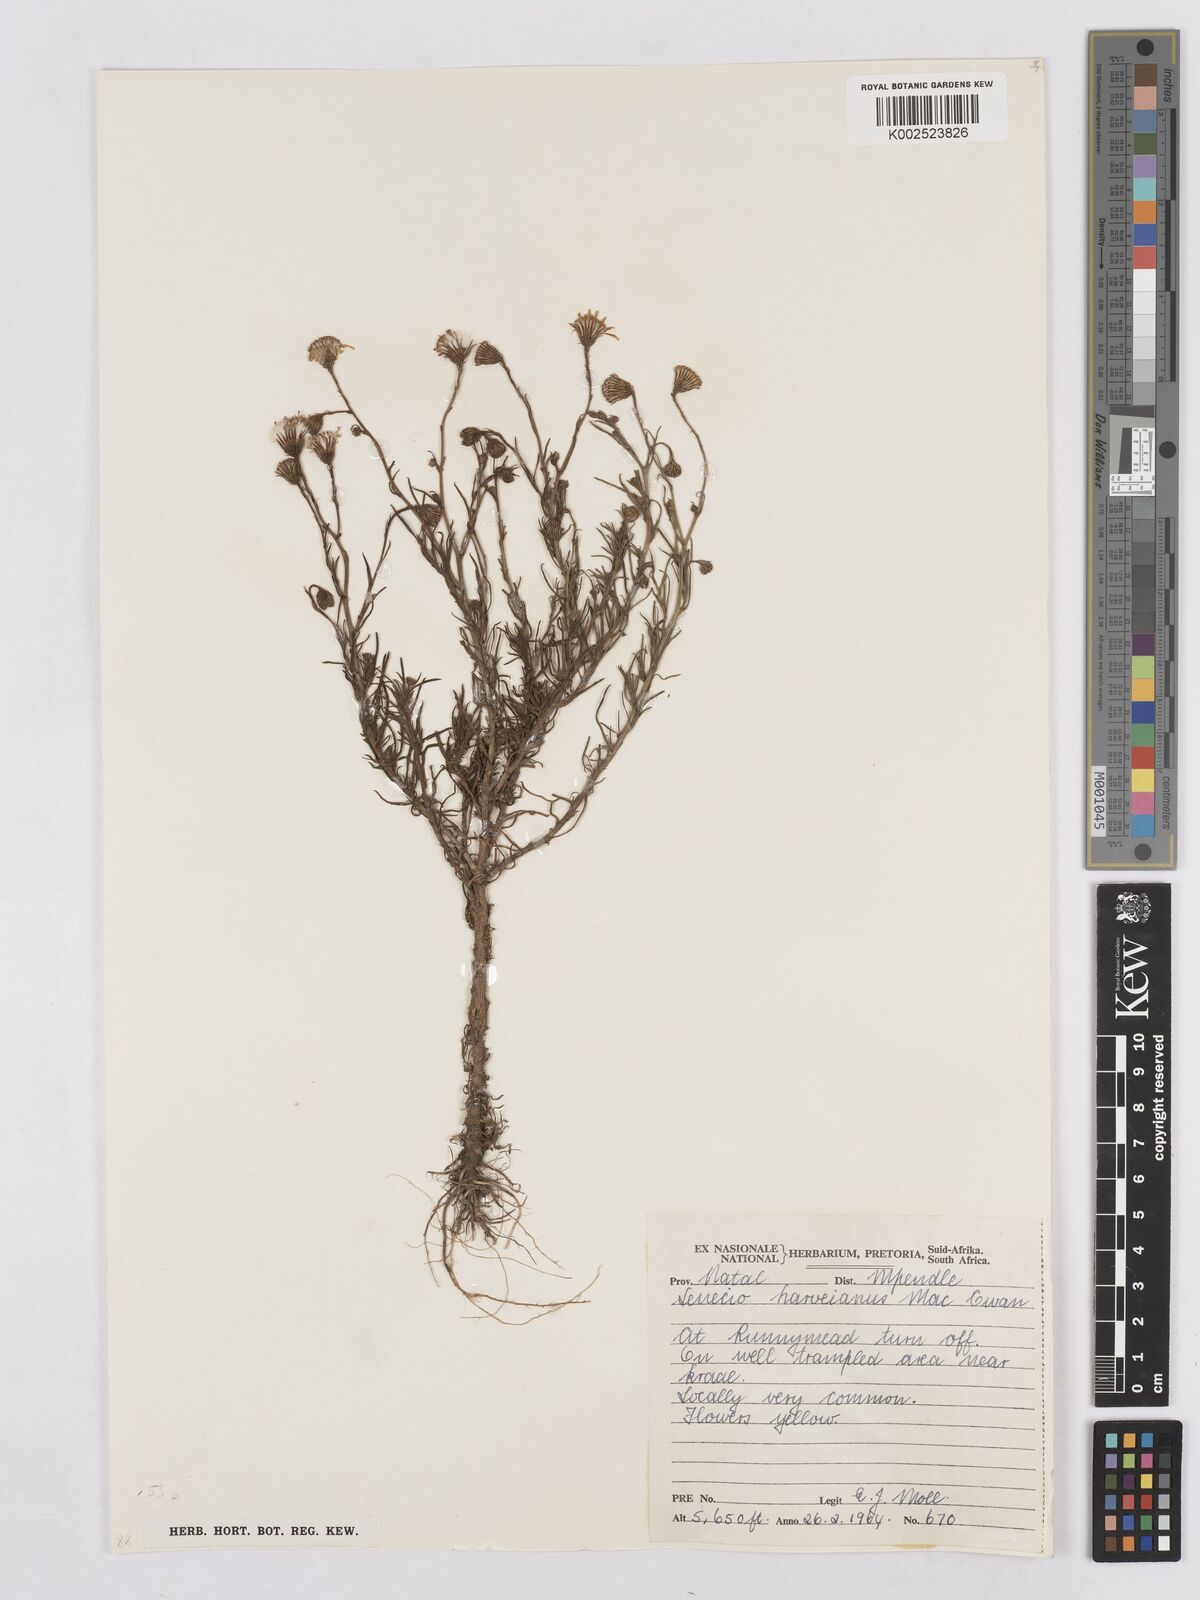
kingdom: Plantae
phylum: Tracheophyta
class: Magnoliopsida
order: Asterales
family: Asteraceae
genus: Senecio
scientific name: Senecio harveyanus
